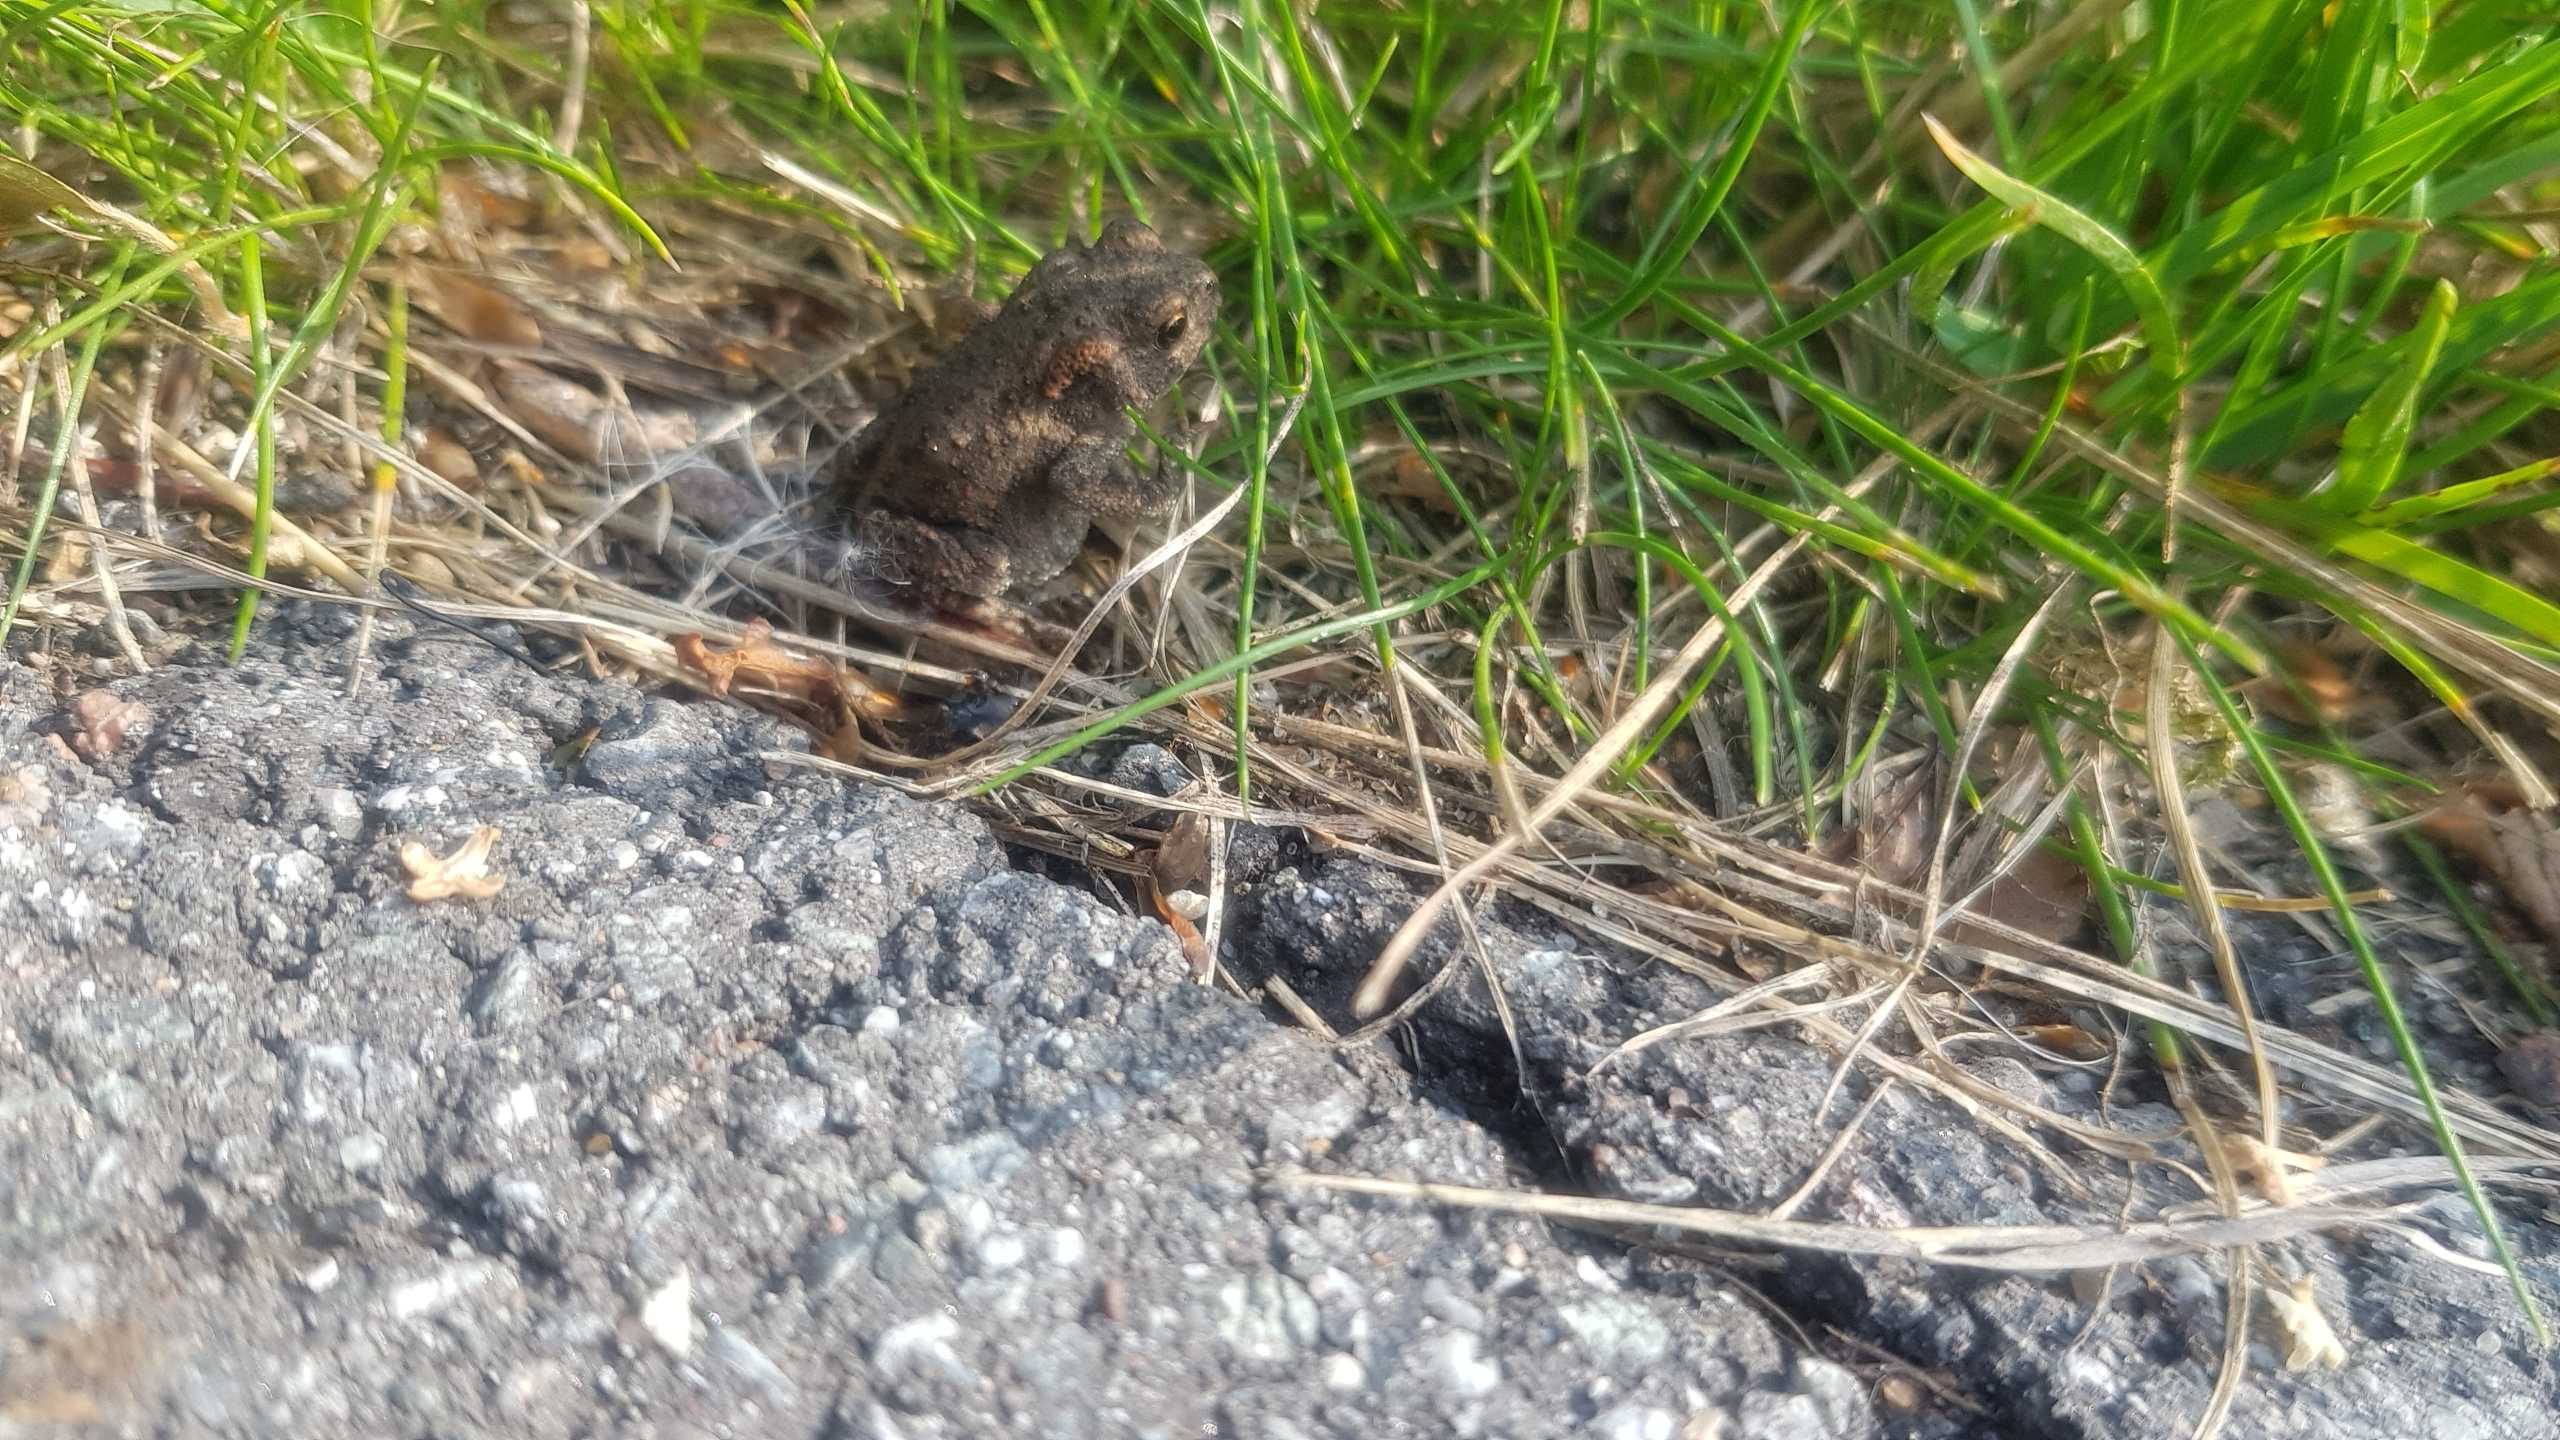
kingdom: Animalia
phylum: Chordata
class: Amphibia
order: Anura
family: Bufonidae
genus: Bufo
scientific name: Bufo bufo
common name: Skrubtudse
